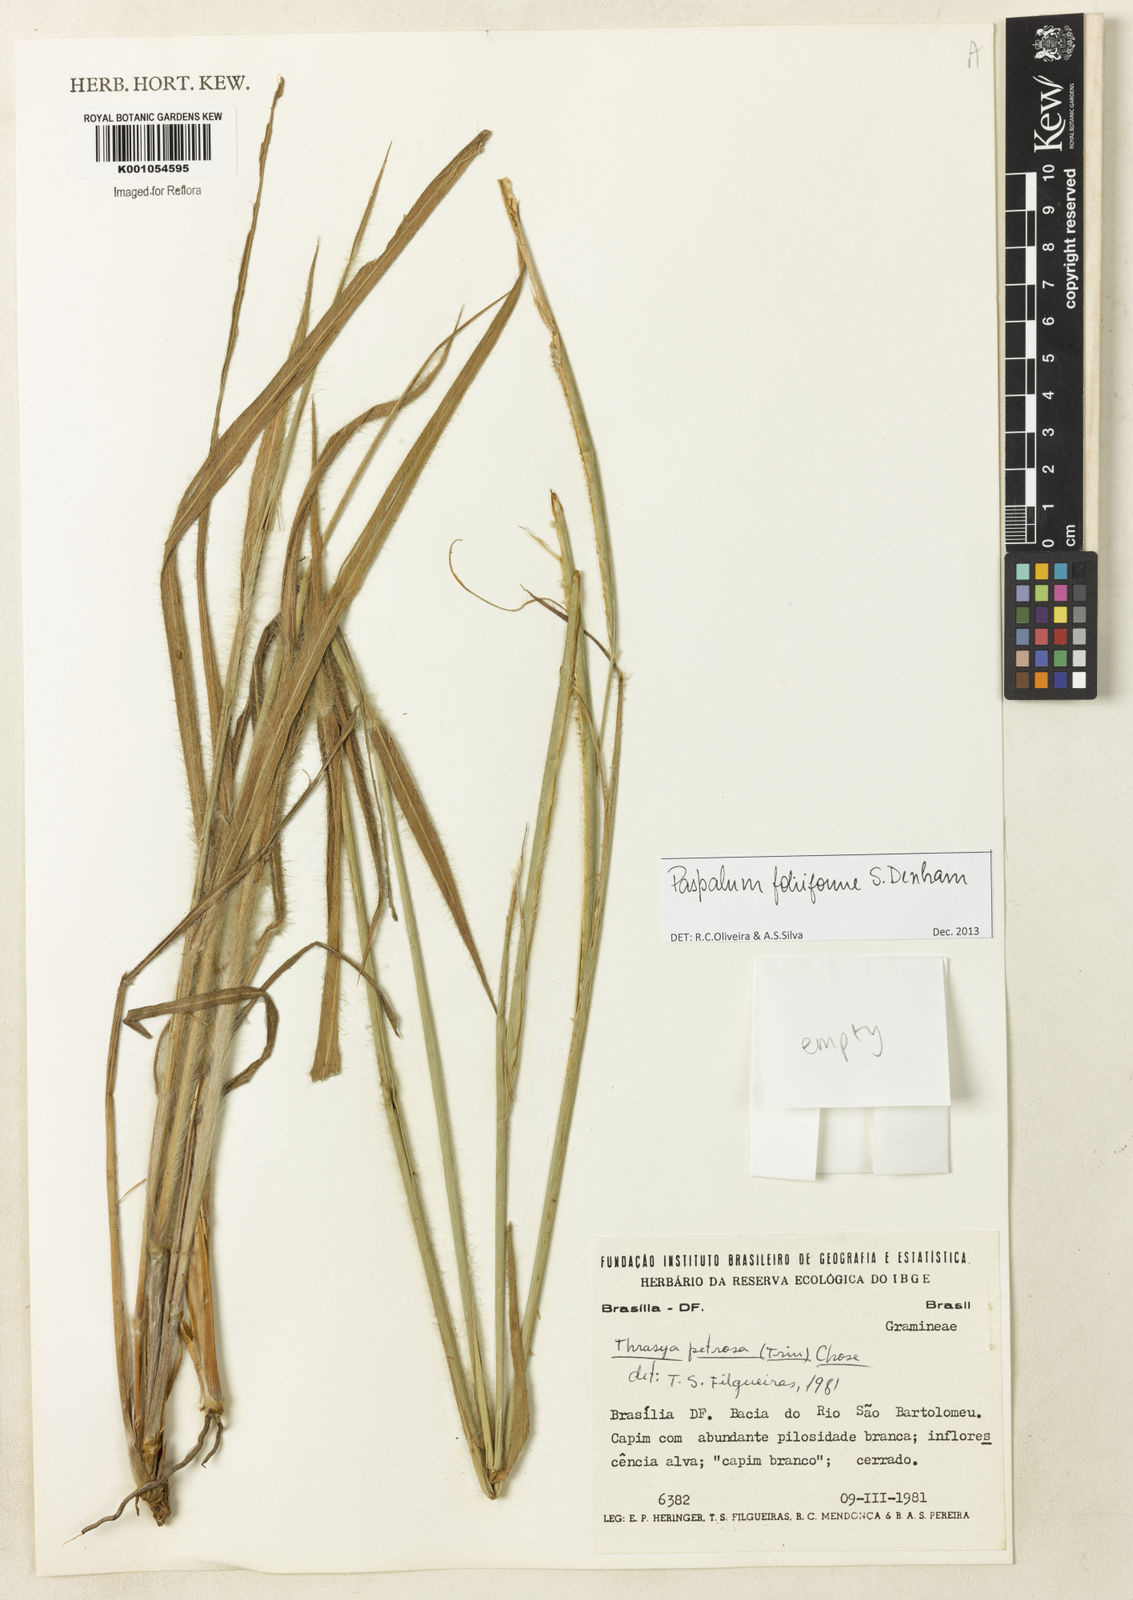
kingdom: Plantae
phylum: Tracheophyta
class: Liliopsida
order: Poales
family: Poaceae
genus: Paspalum
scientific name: Paspalum foliiforme
